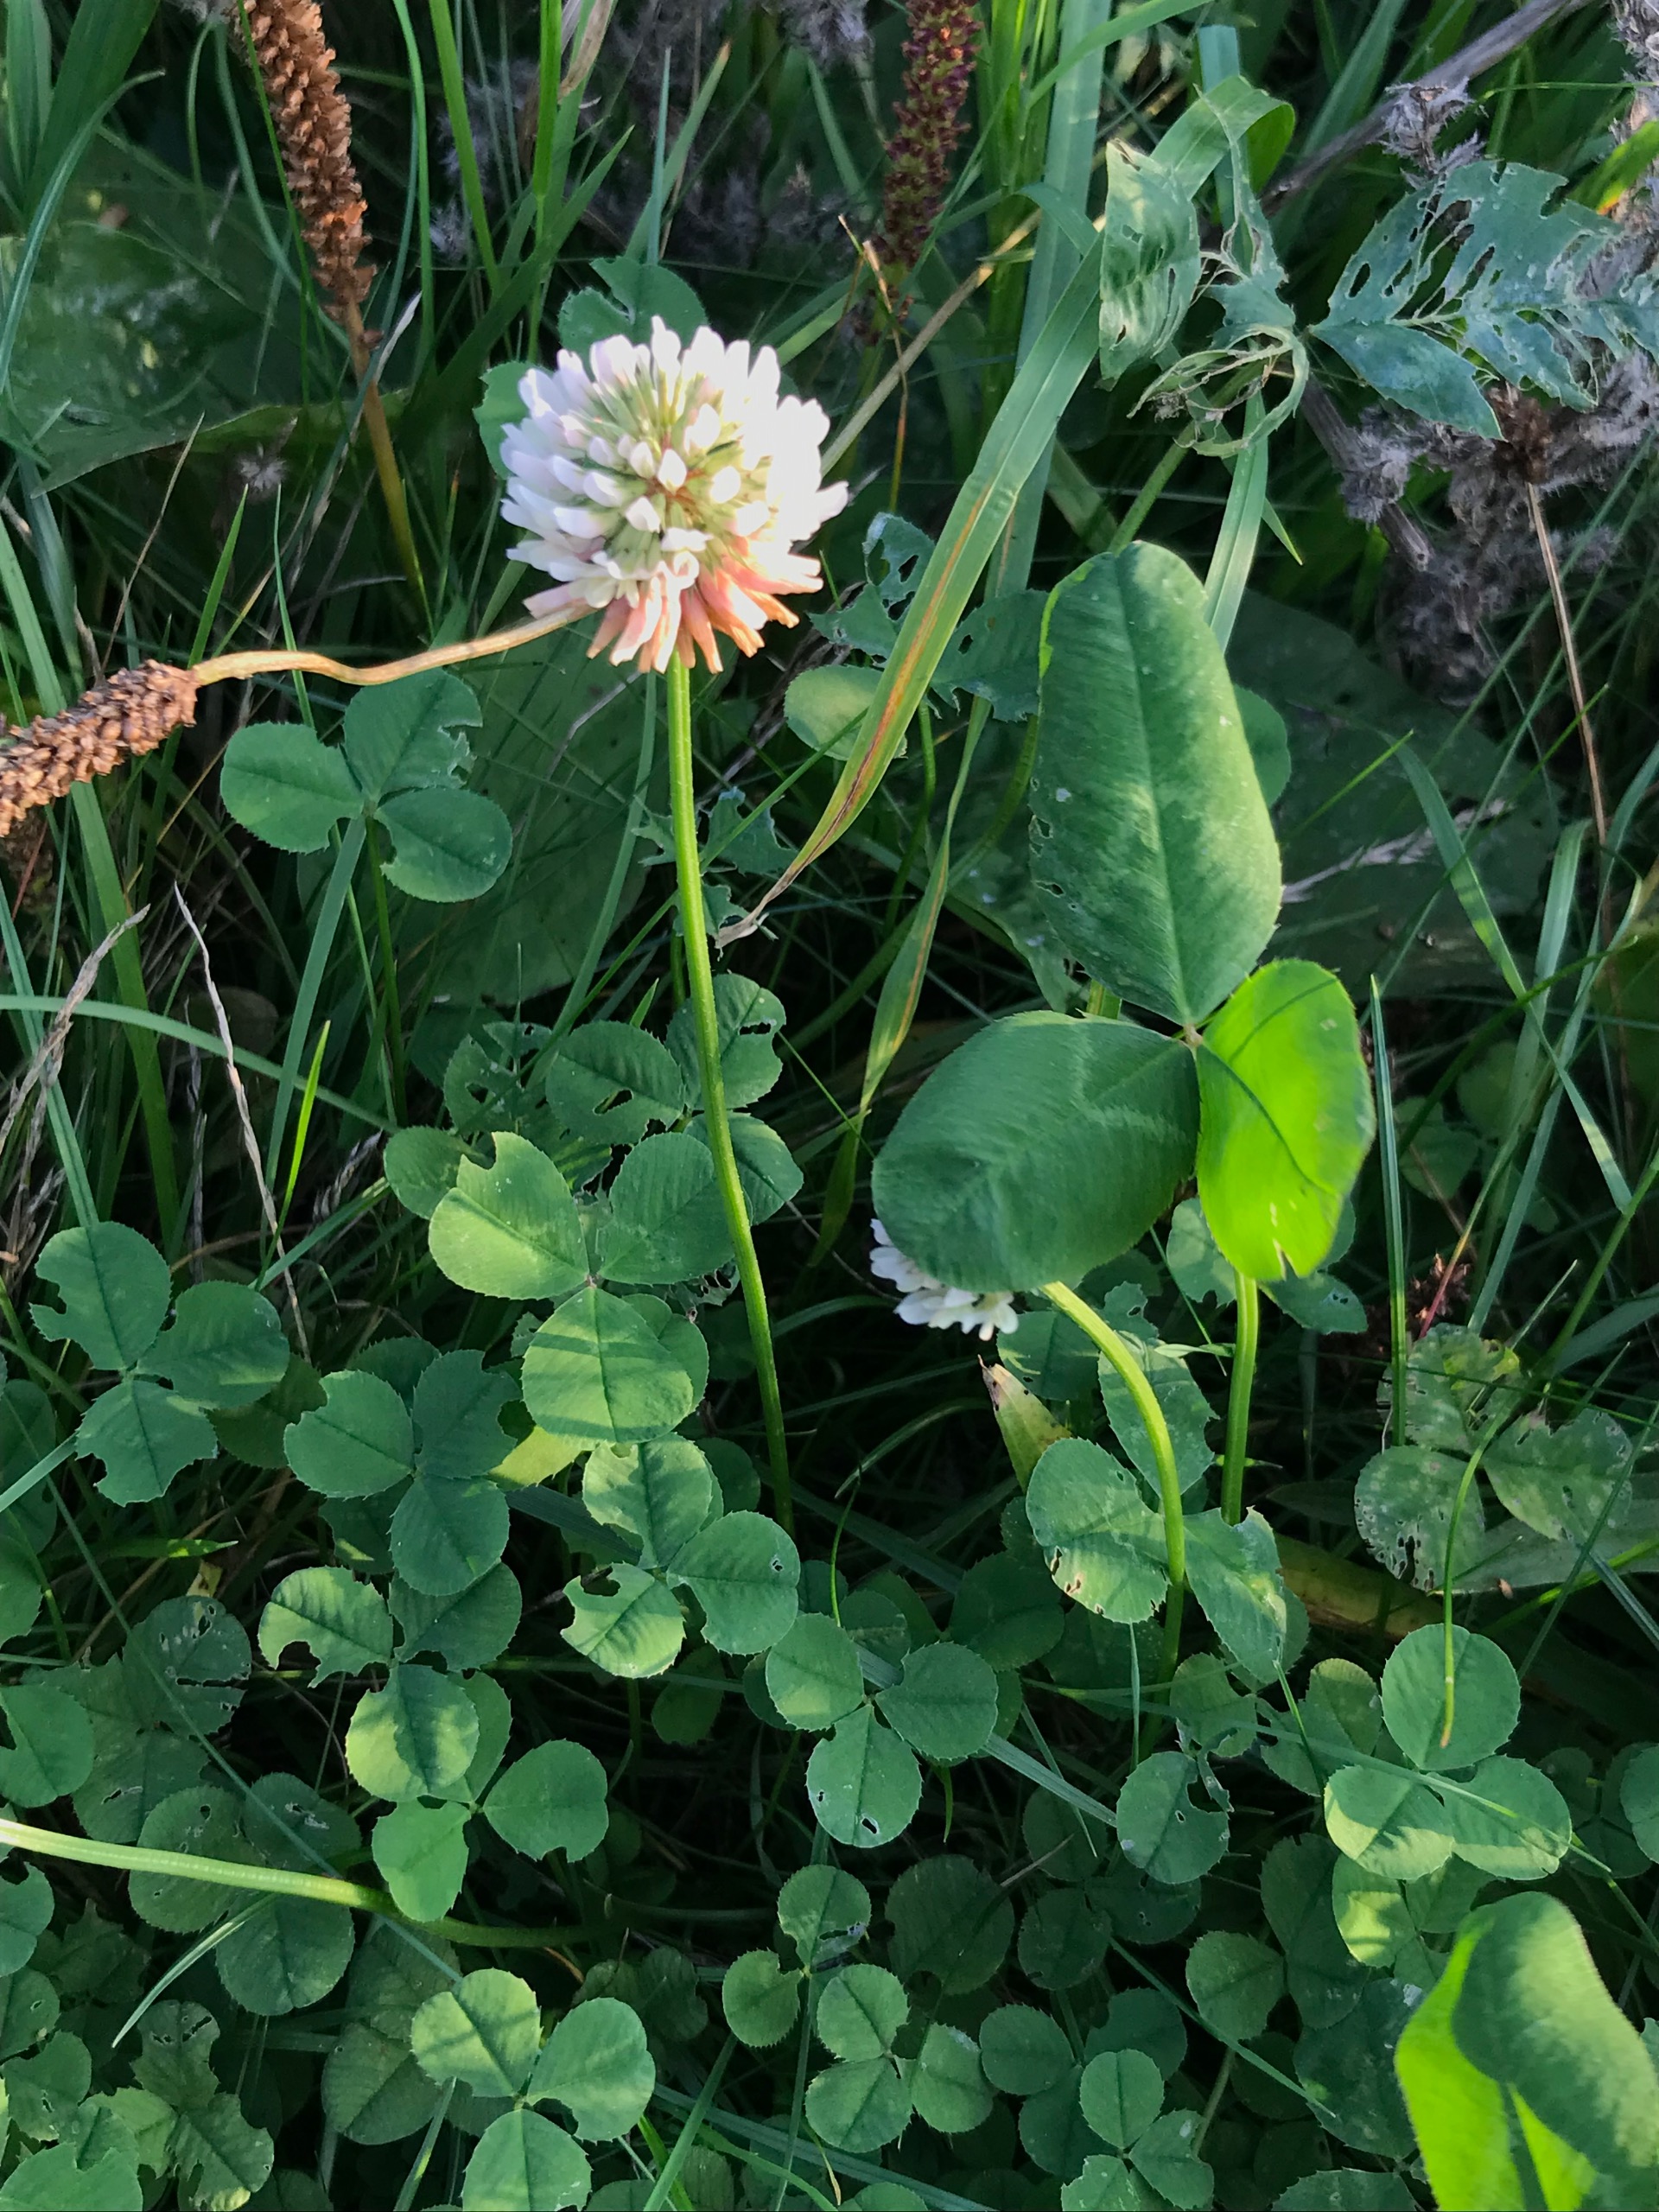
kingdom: Plantae
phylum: Tracheophyta
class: Magnoliopsida
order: Fabales
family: Fabaceae
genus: Trifolium
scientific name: Trifolium repens
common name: Hvid-kløver
